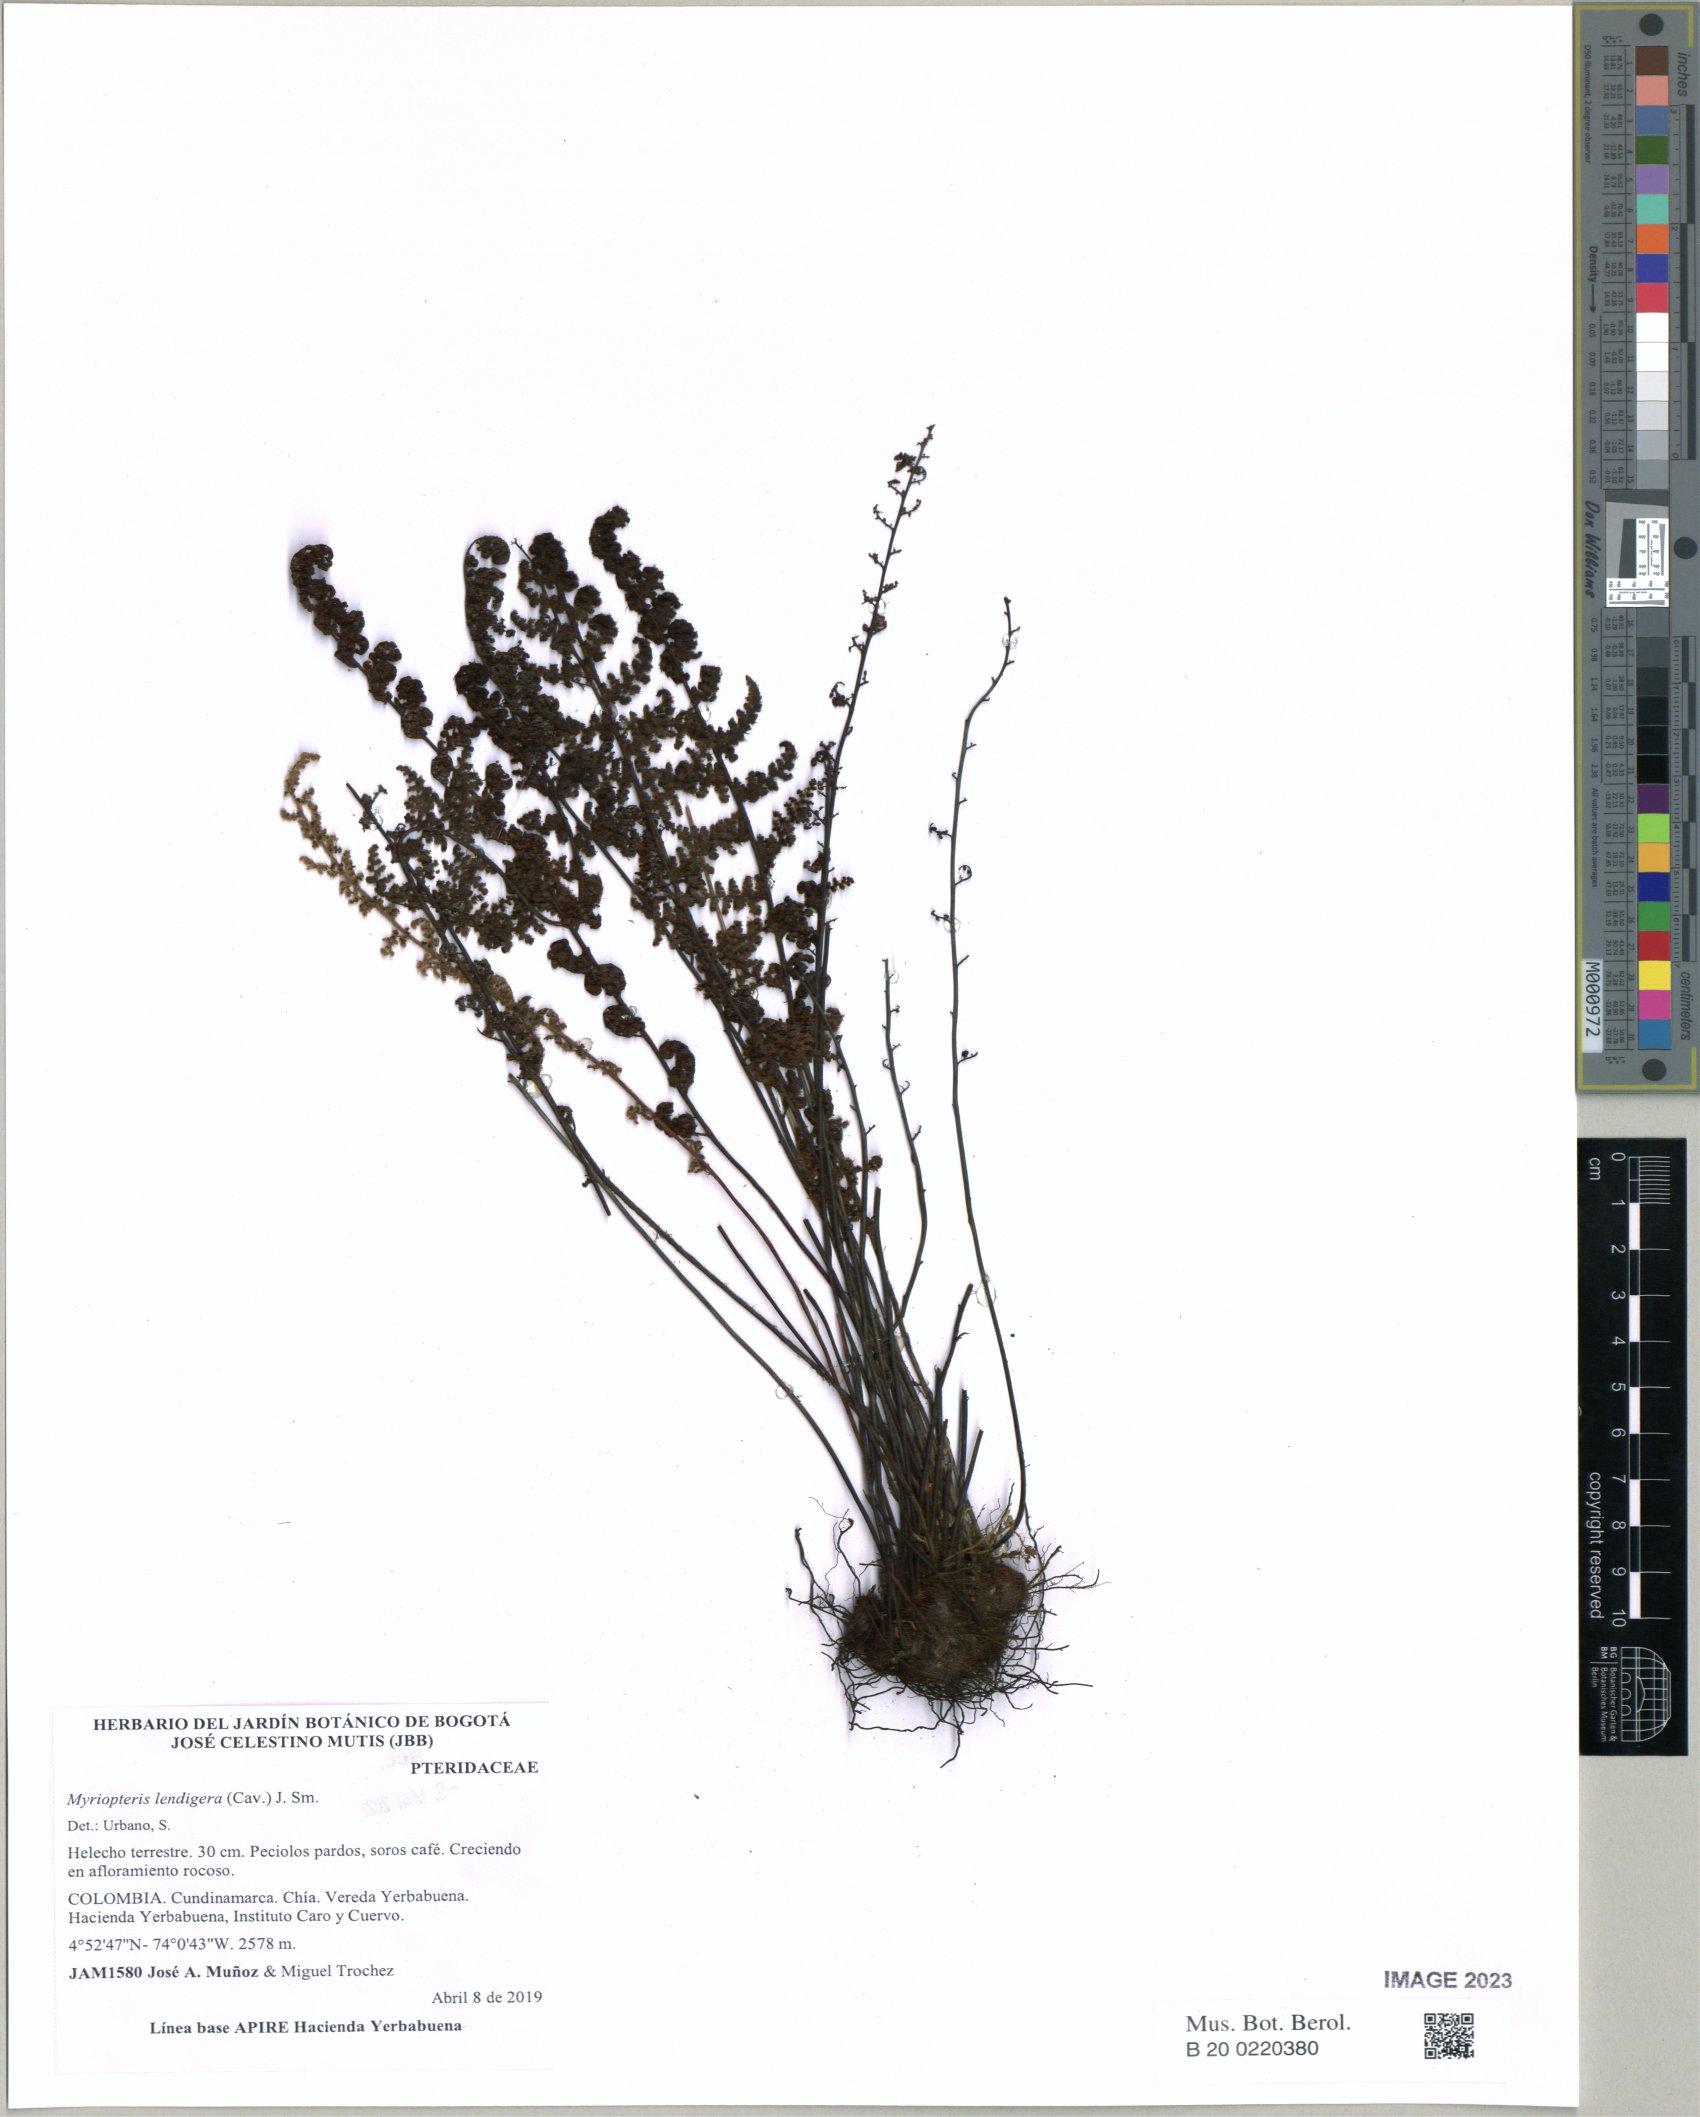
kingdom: Plantae
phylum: Tracheophyta
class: Polypodiopsida
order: Polypodiales
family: Pteridaceae
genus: Myriopteris
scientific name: Myriopteris lendigera
